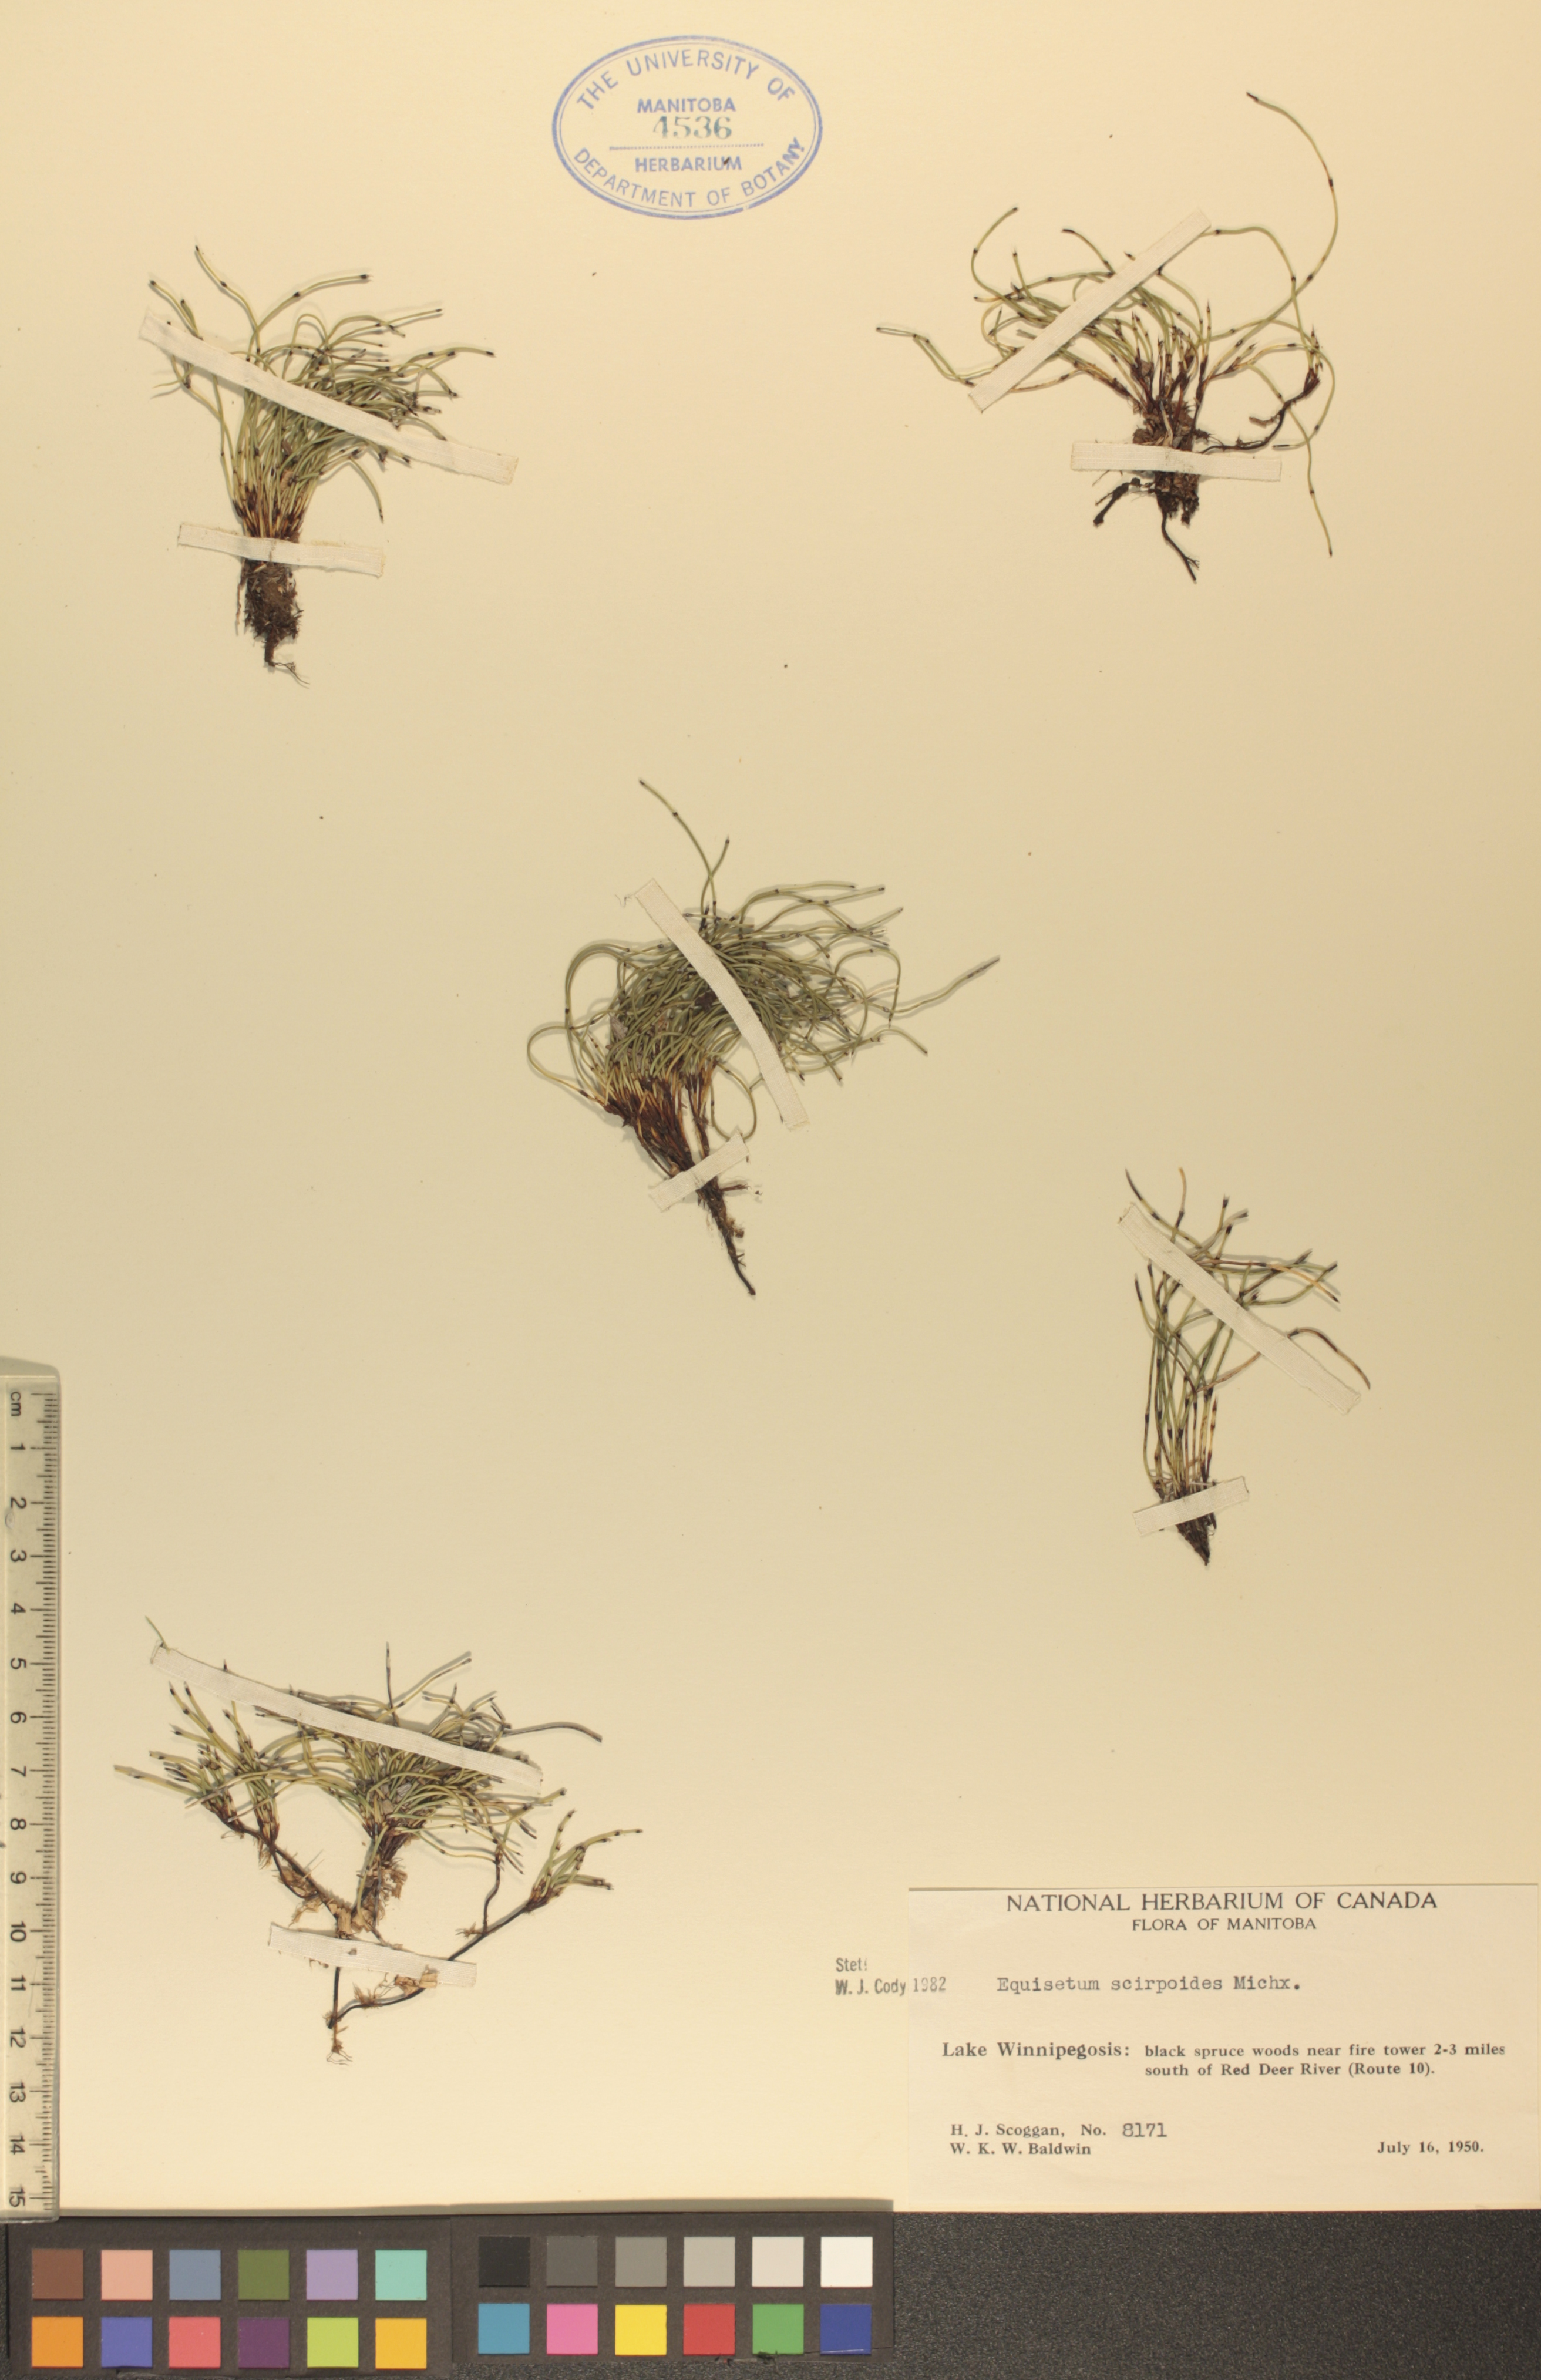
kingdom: Plantae
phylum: Tracheophyta
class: Polypodiopsida
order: Equisetales
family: Equisetaceae
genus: Equisetum
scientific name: Equisetum scirpoides
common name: Delicate horsetail
